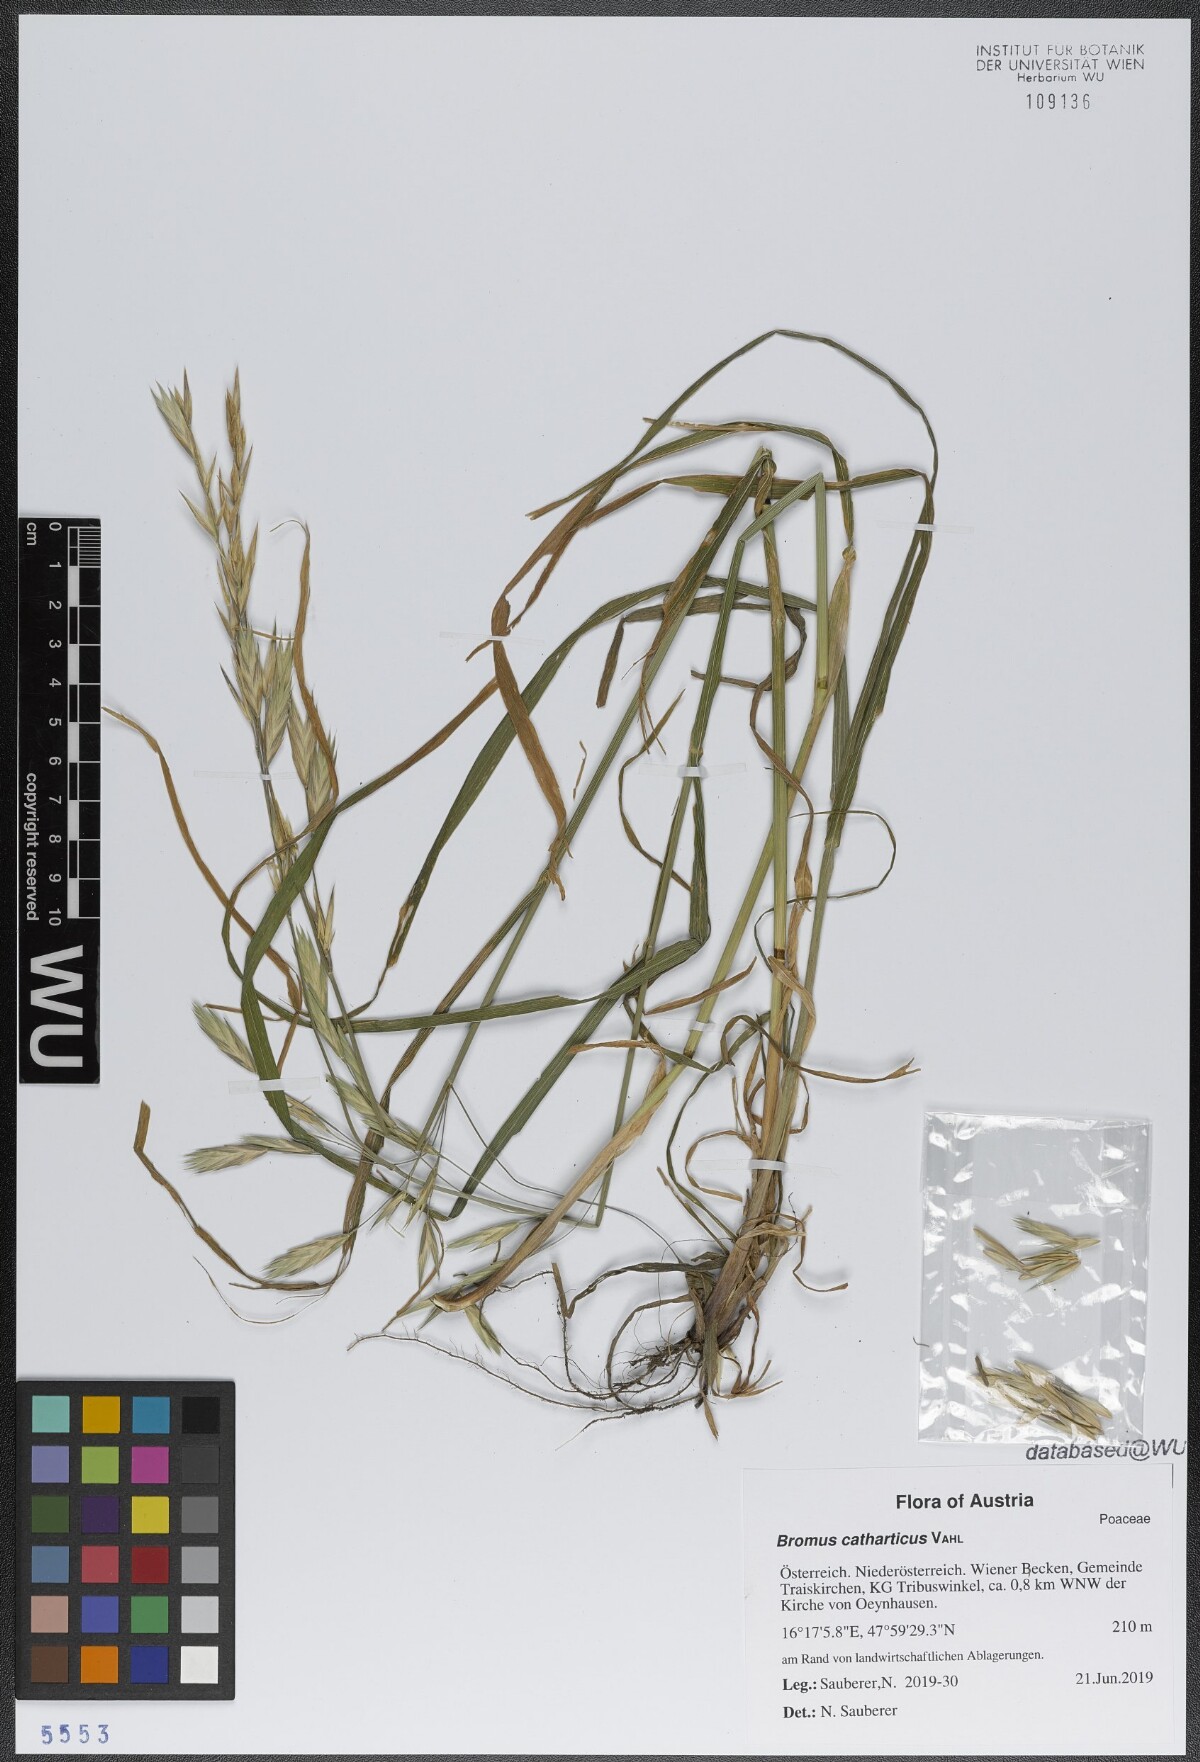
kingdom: Plantae
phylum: Tracheophyta
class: Liliopsida
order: Poales
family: Poaceae
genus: Bromus
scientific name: Bromus catharticus
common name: Rescuegrass
